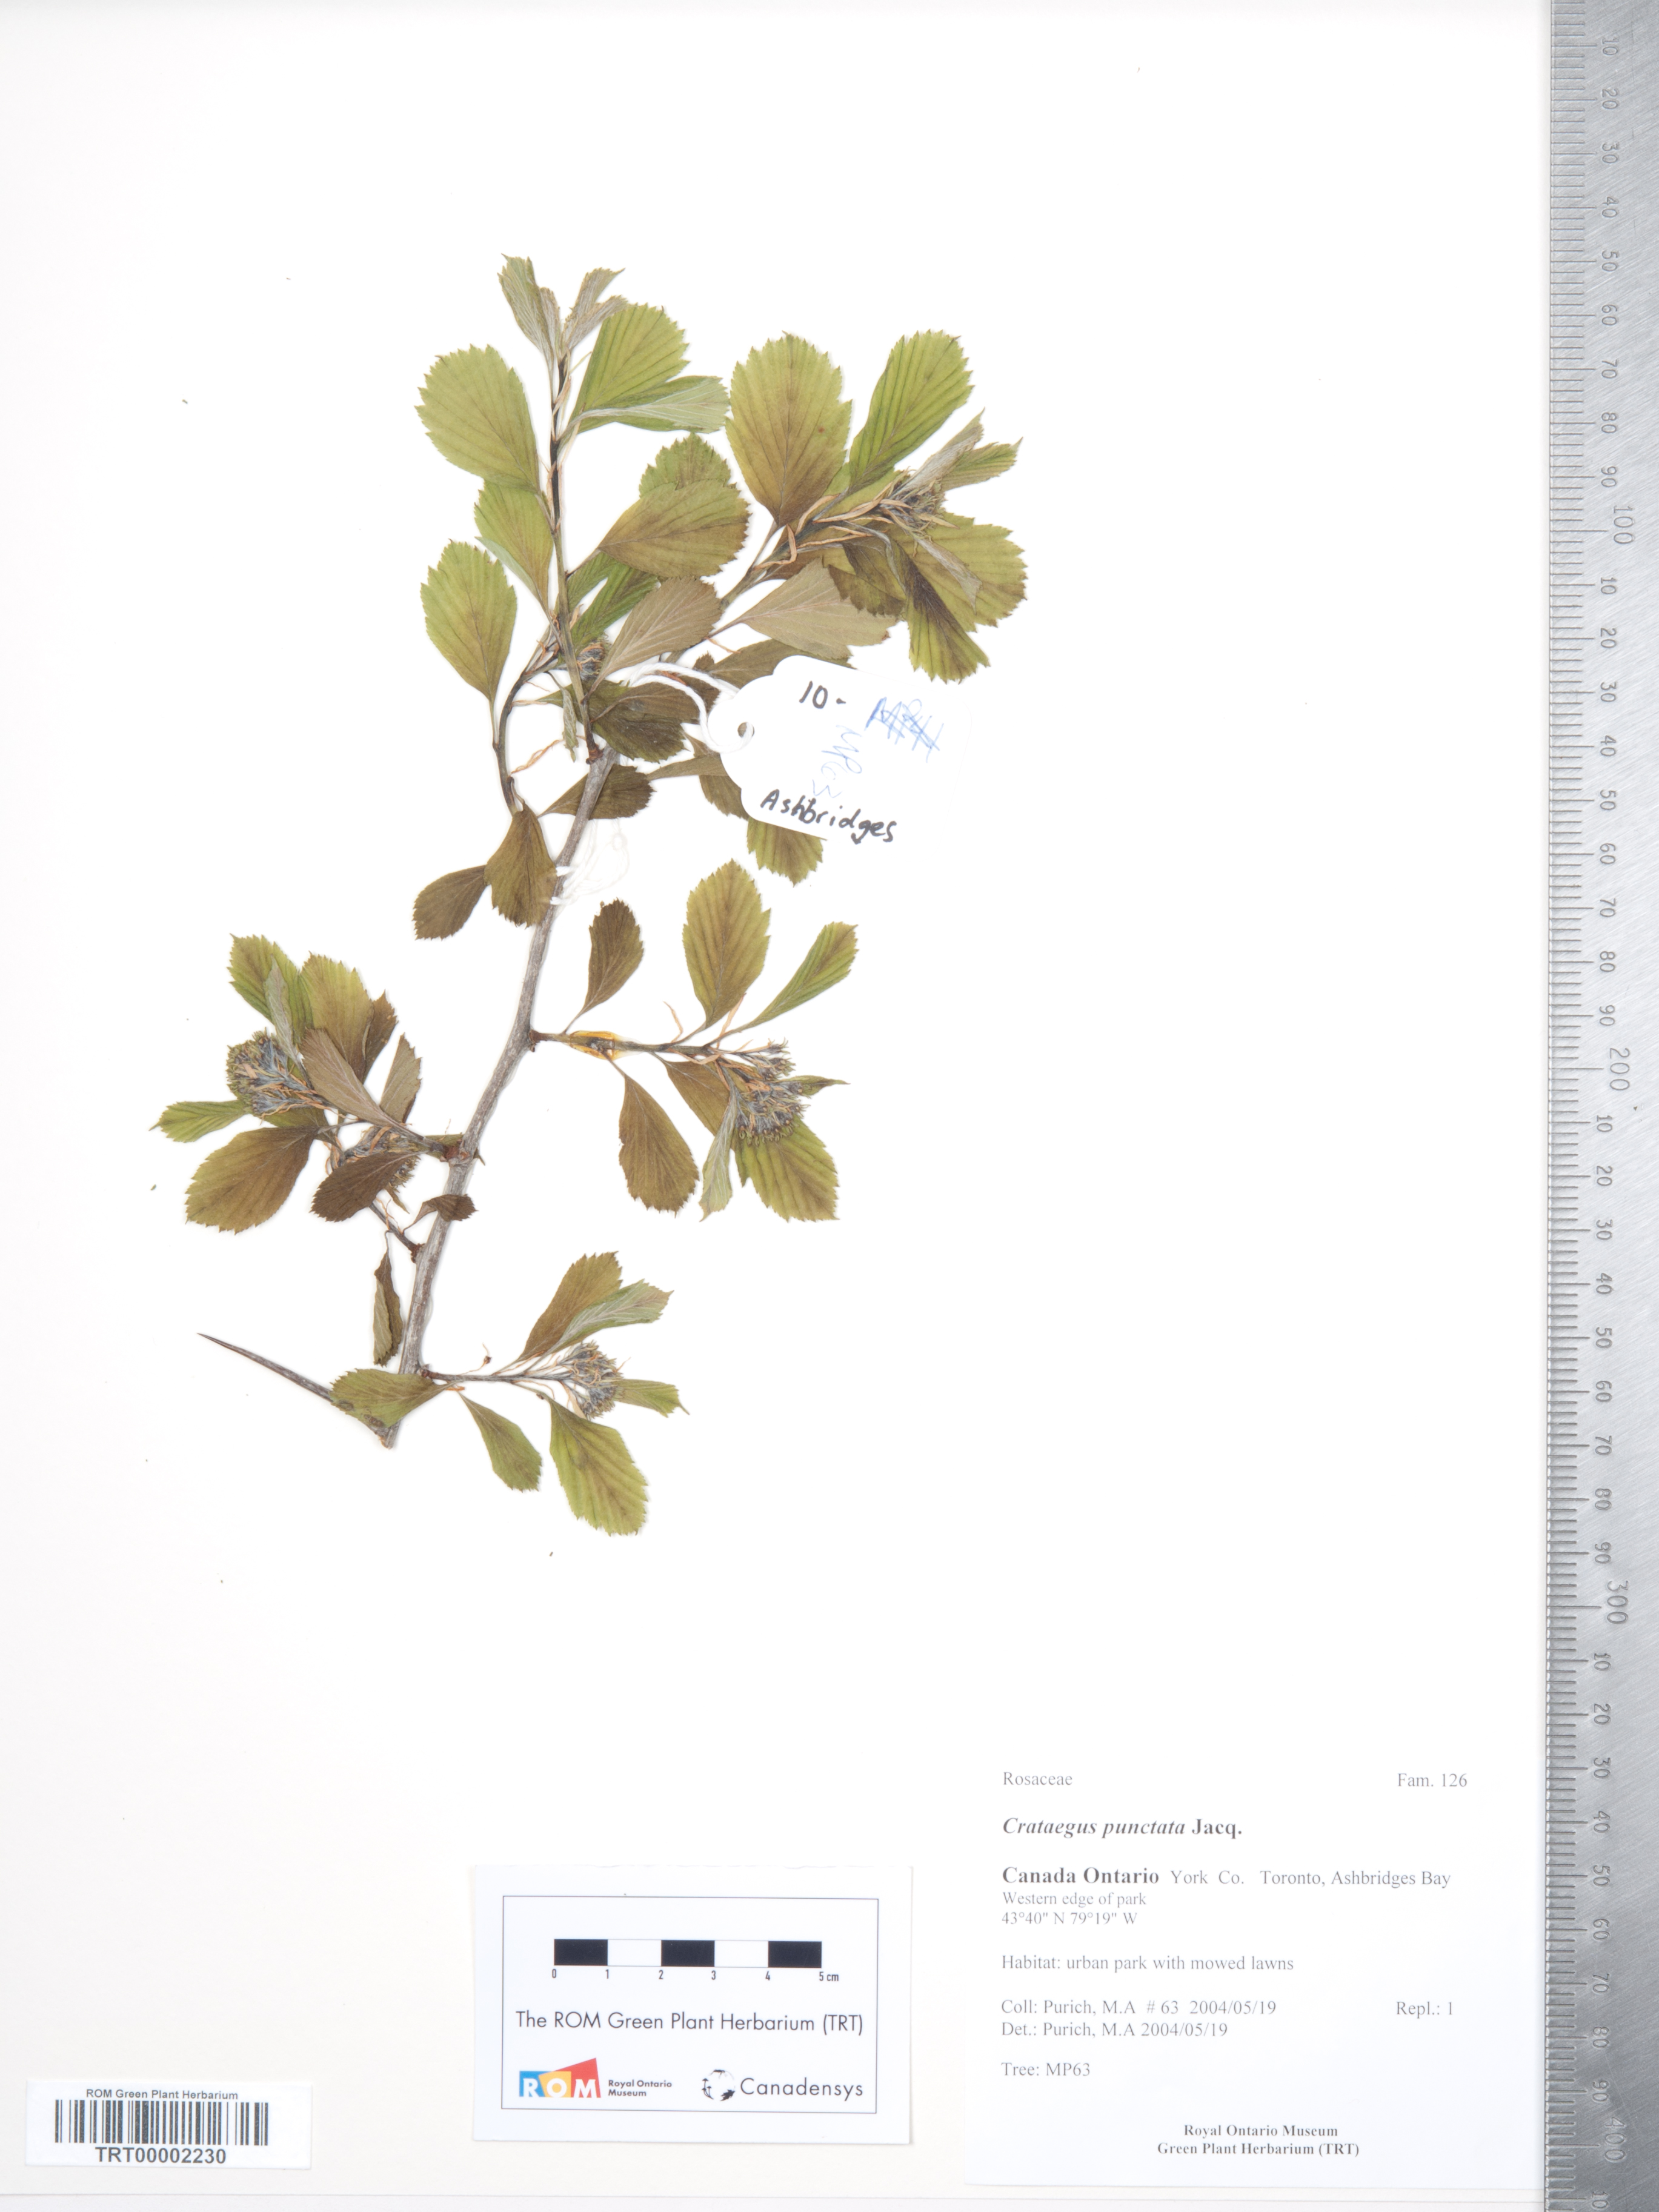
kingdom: Plantae
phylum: Tracheophyta
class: Magnoliopsida
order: Rosales
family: Rosaceae
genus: Crataegus
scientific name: Crataegus punctata
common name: Dotted hawthorn
